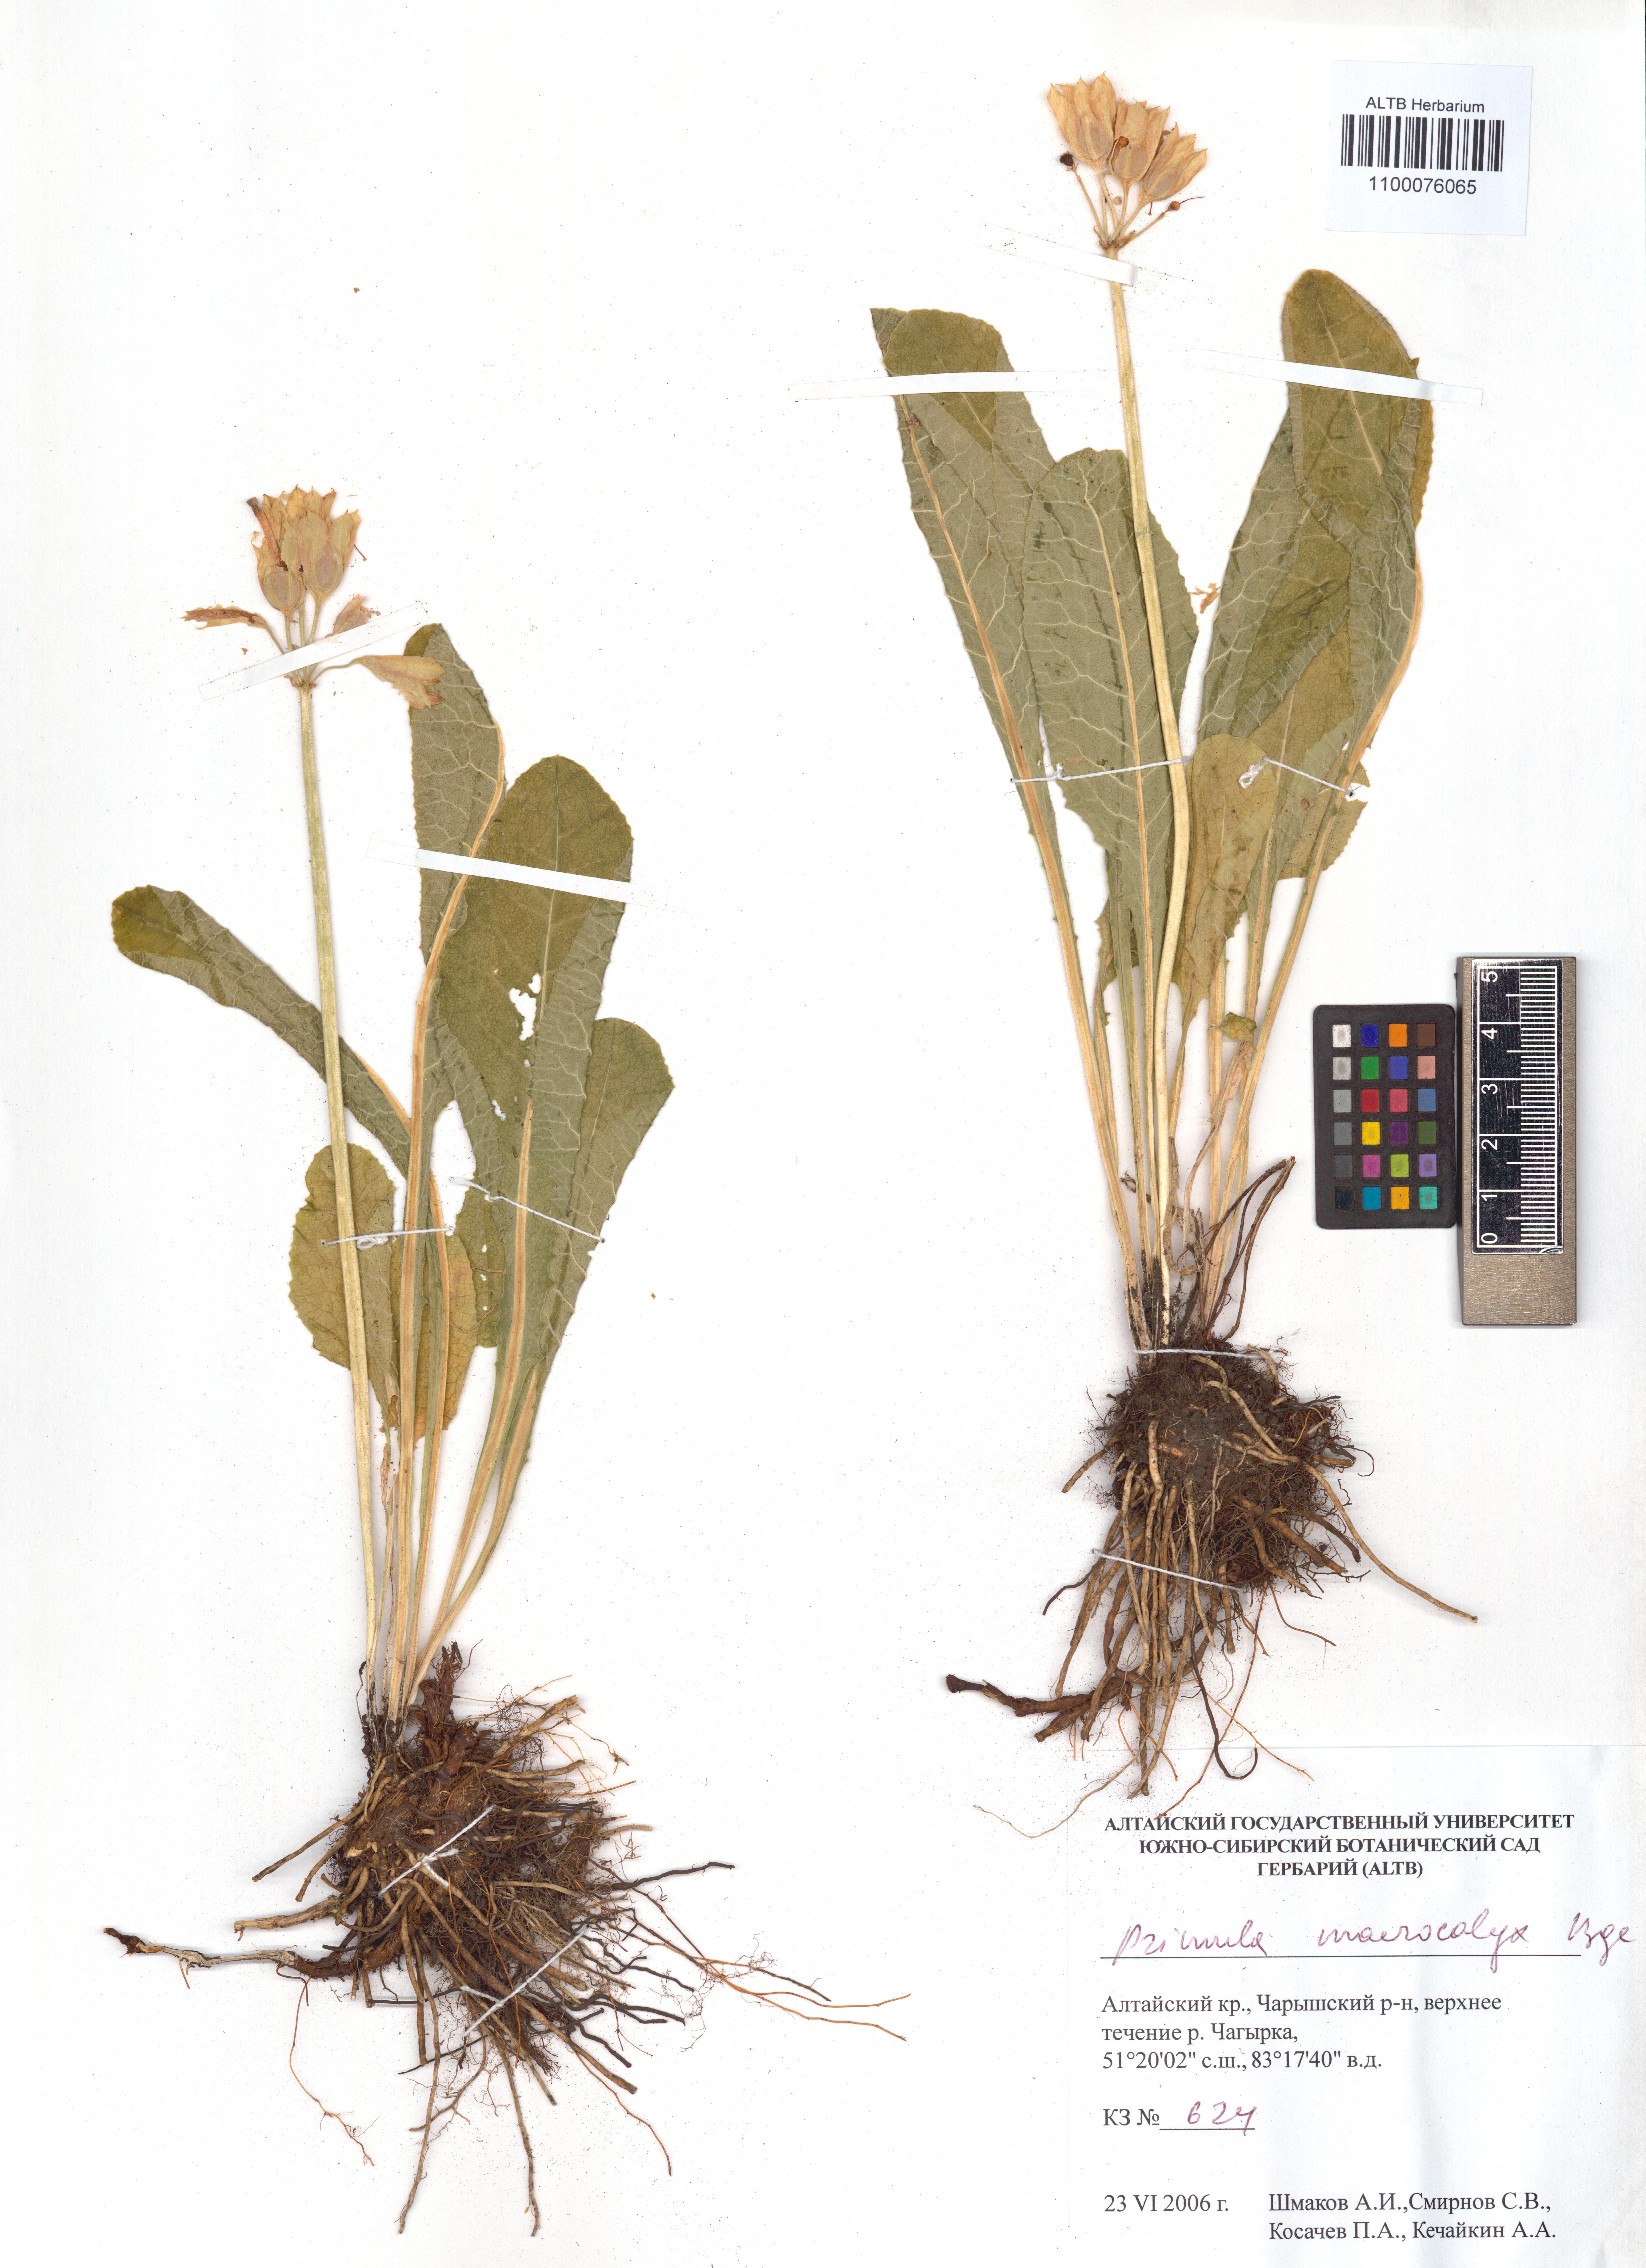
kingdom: Plantae
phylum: Tracheophyta
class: Magnoliopsida
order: Ericales
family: Primulaceae
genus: Primula
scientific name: Primula veris
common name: Cowslip
